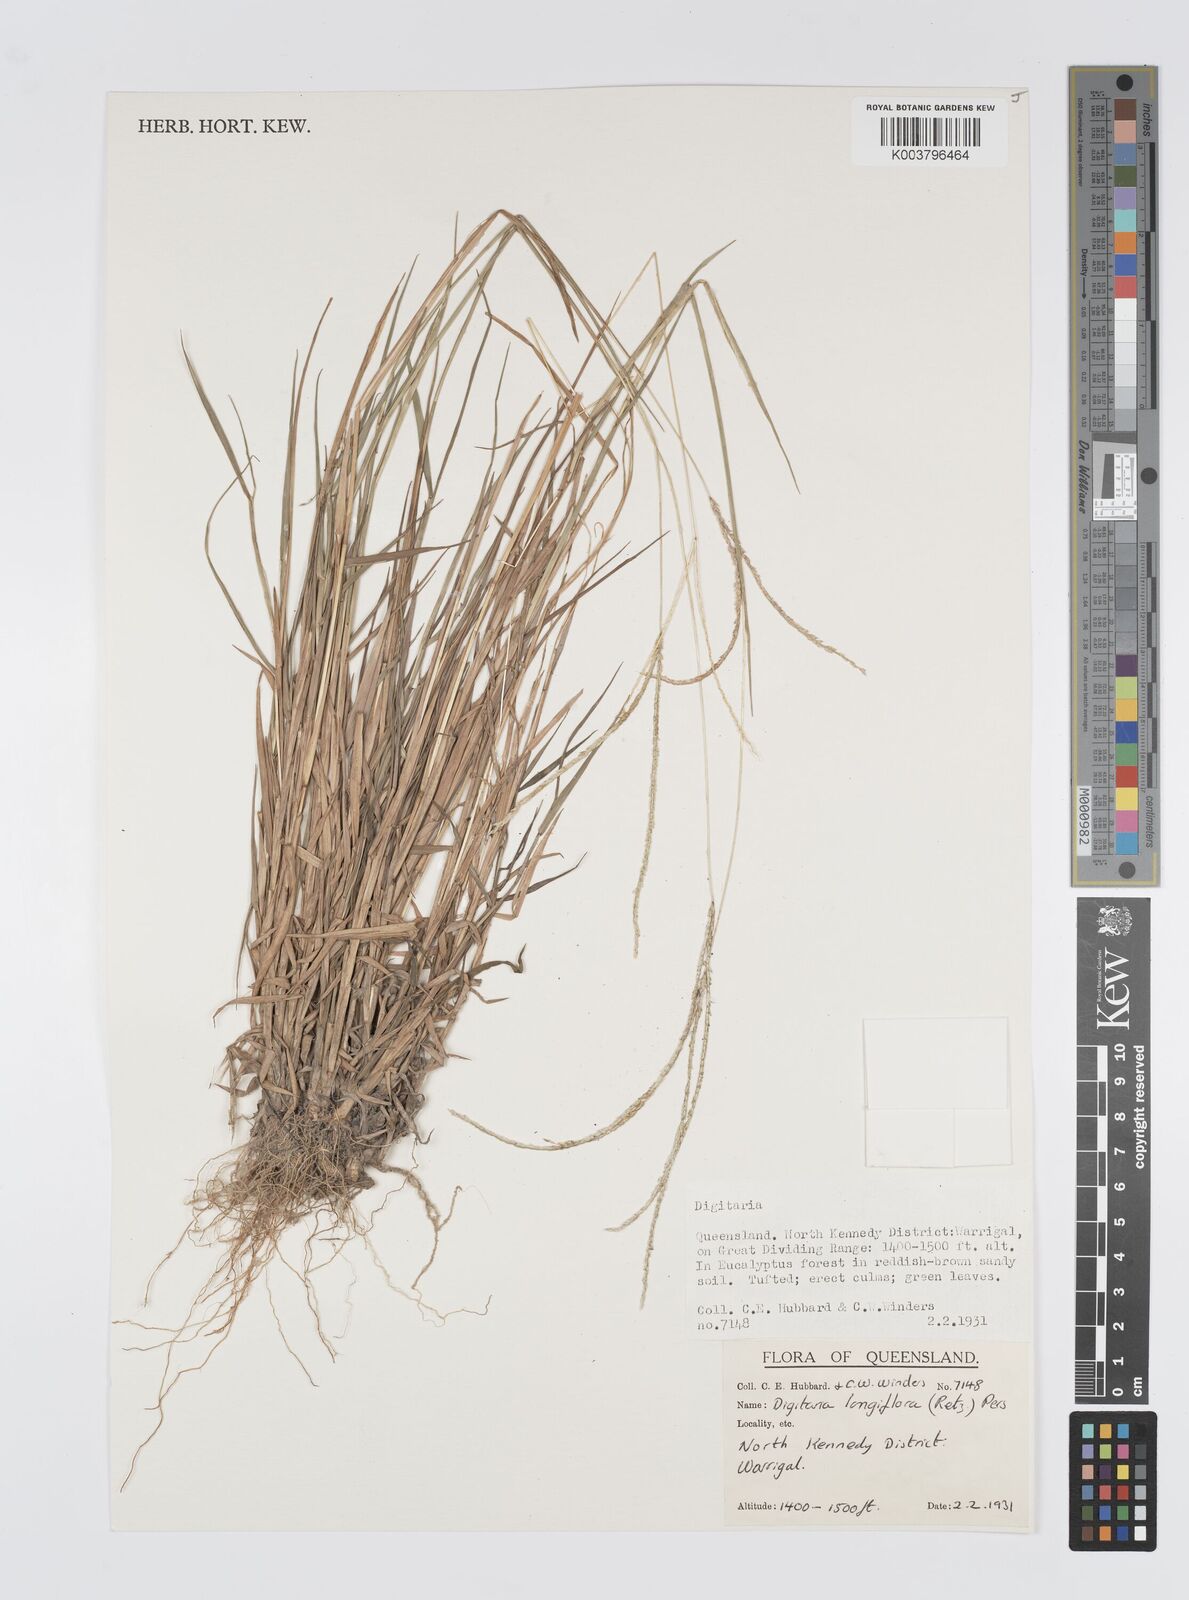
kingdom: Plantae
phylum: Tracheophyta
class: Liliopsida
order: Poales
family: Poaceae
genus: Digitaria
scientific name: Digitaria longiflora
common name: Wire crabgrass
